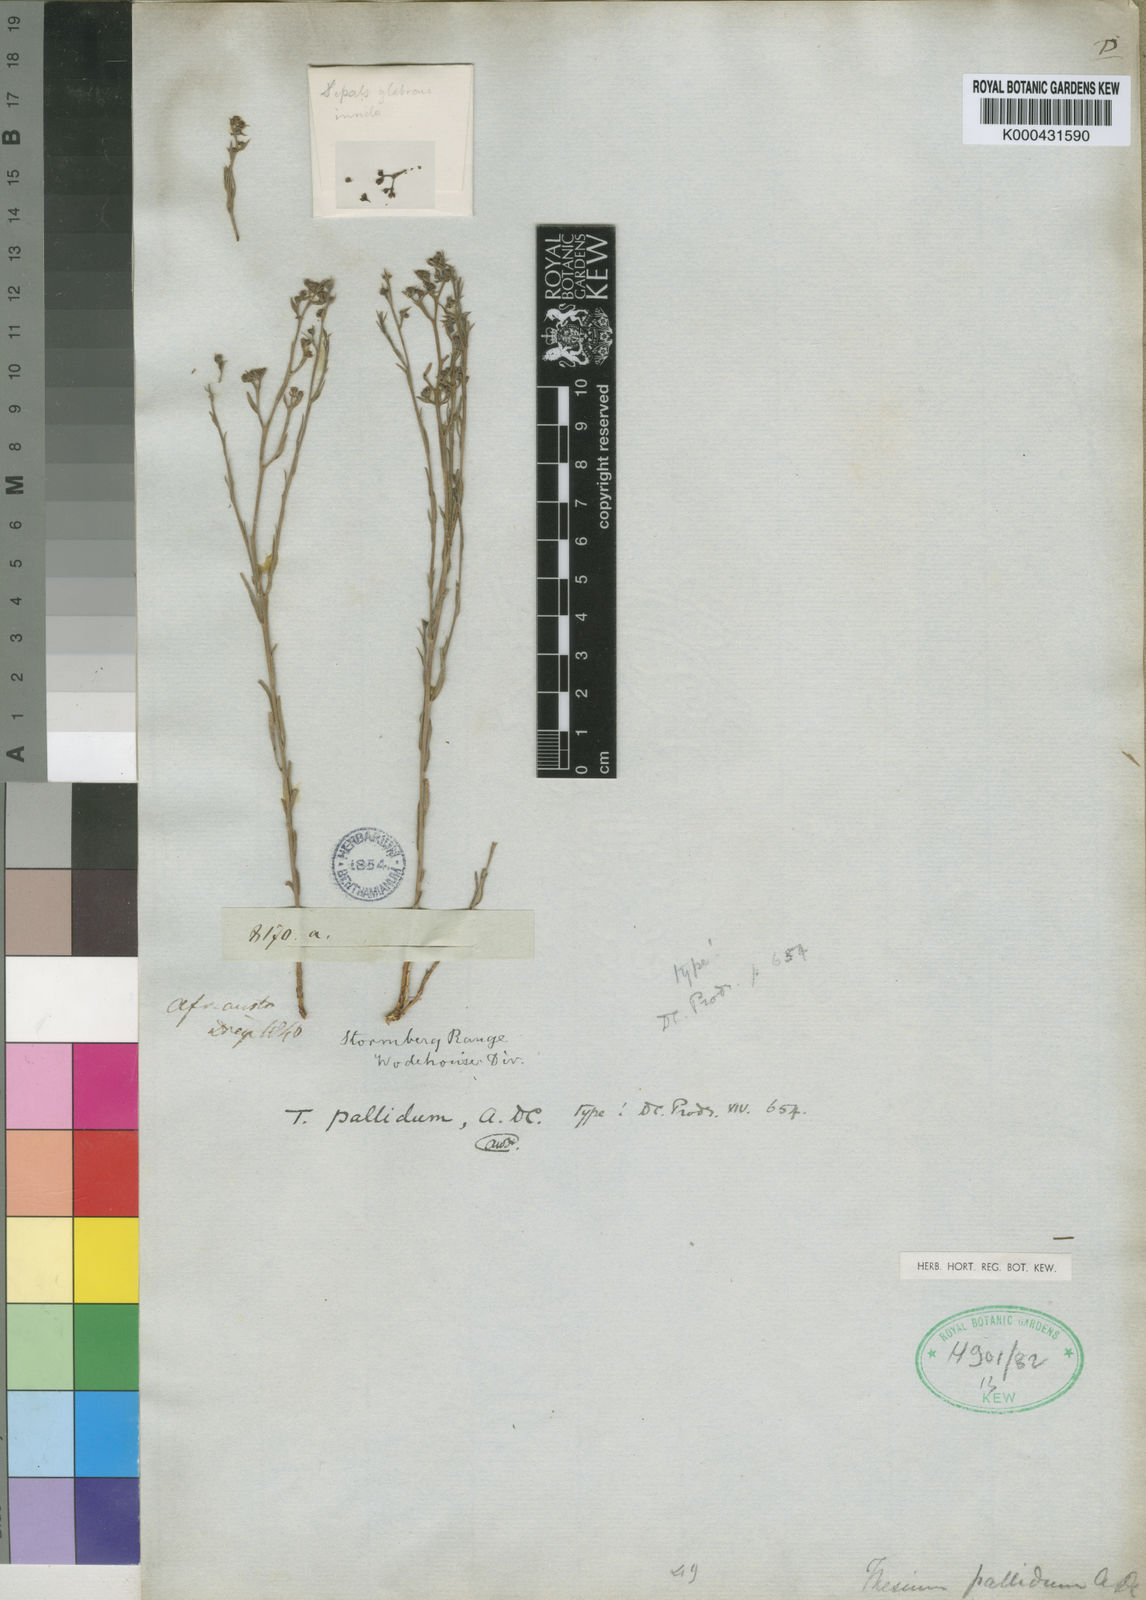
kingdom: Plantae
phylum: Tracheophyta
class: Magnoliopsida
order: Santalales
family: Thesiaceae
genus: Thesium
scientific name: Thesium pallidum
